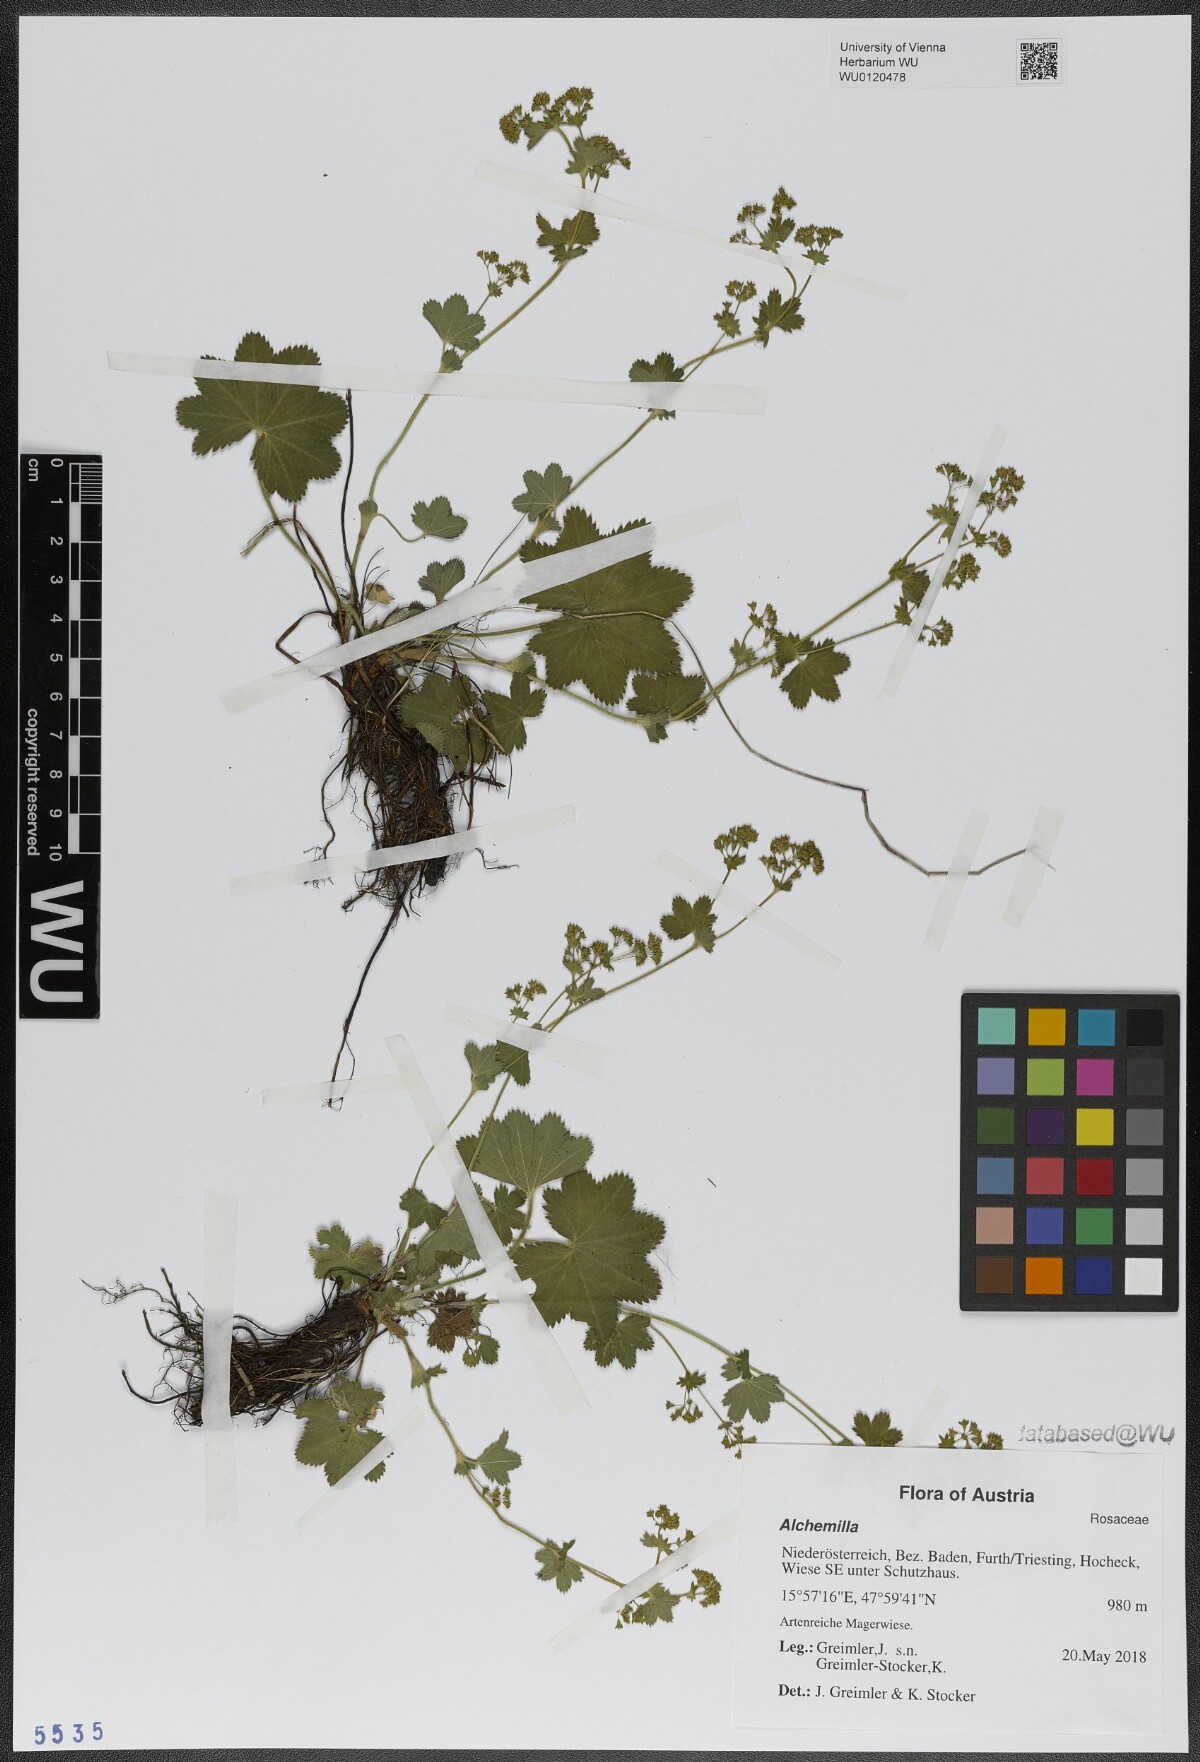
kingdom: Plantae
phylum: Tracheophyta
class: Magnoliopsida
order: Rosales
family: Rosaceae
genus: Alchemilla
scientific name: Alchemilla
